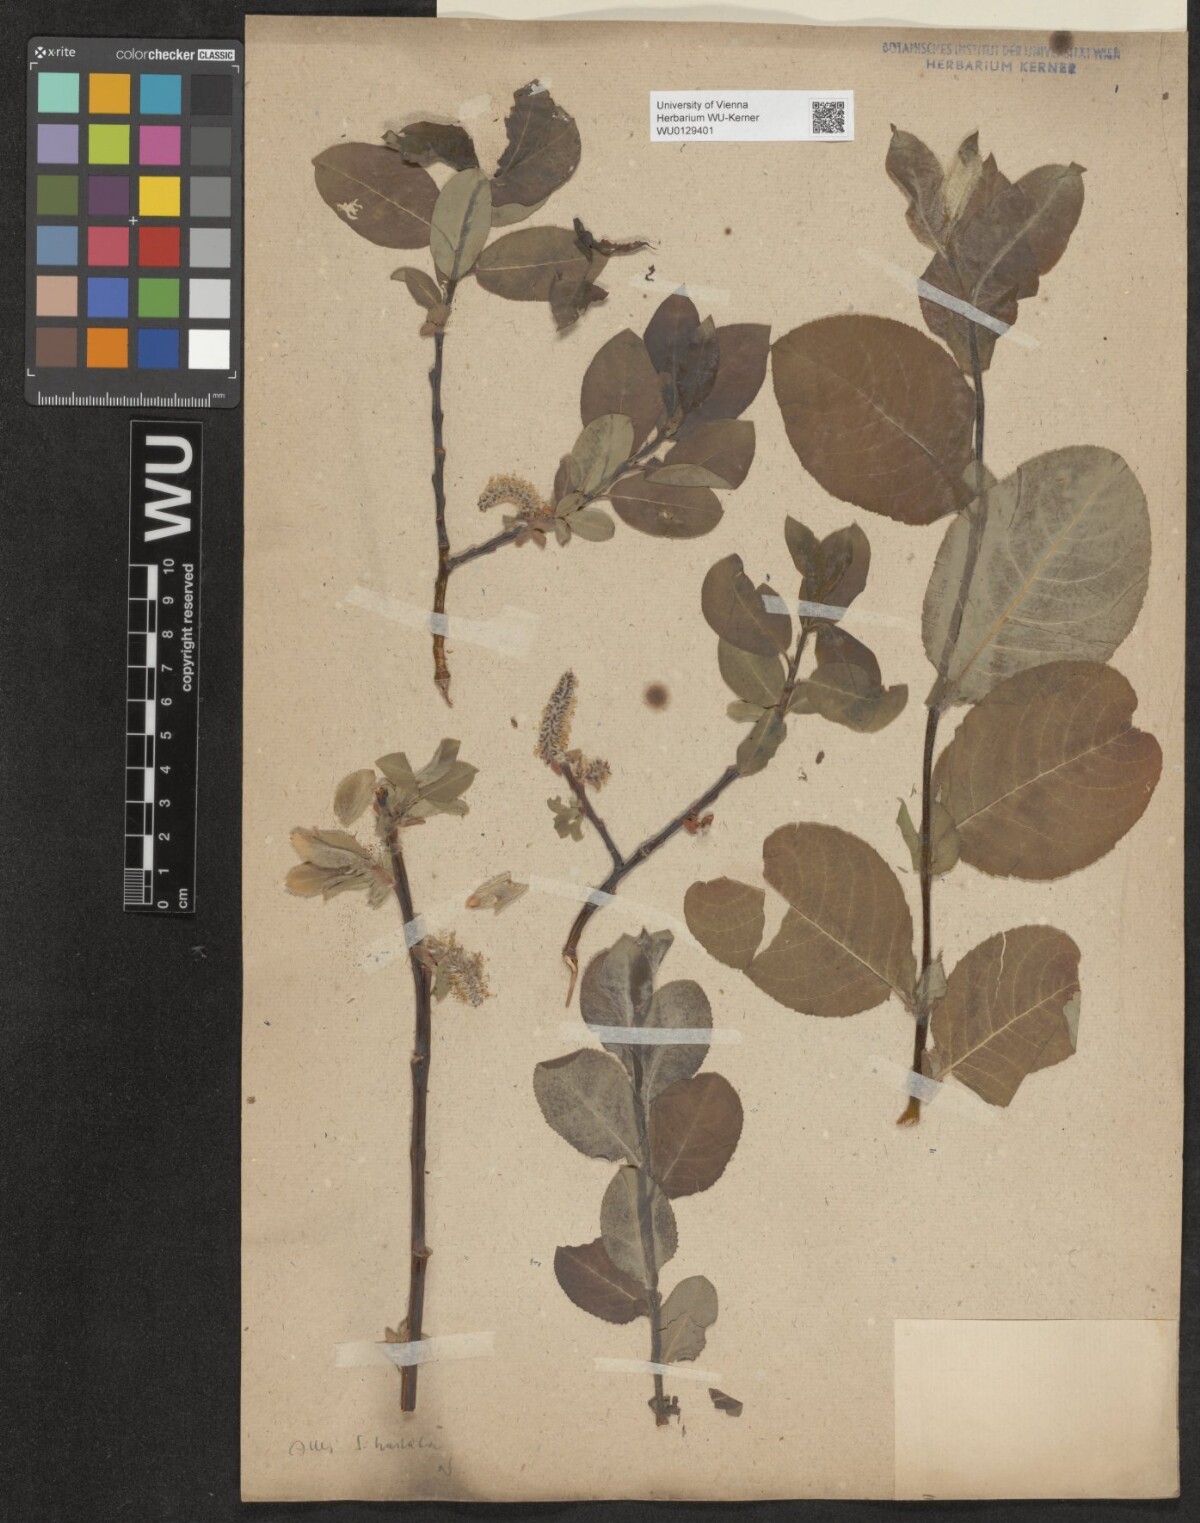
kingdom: Plantae
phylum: Tracheophyta
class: Magnoliopsida
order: Malpighiales
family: Salicaceae
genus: Salix
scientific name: Salix hastata
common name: Halberd willow
